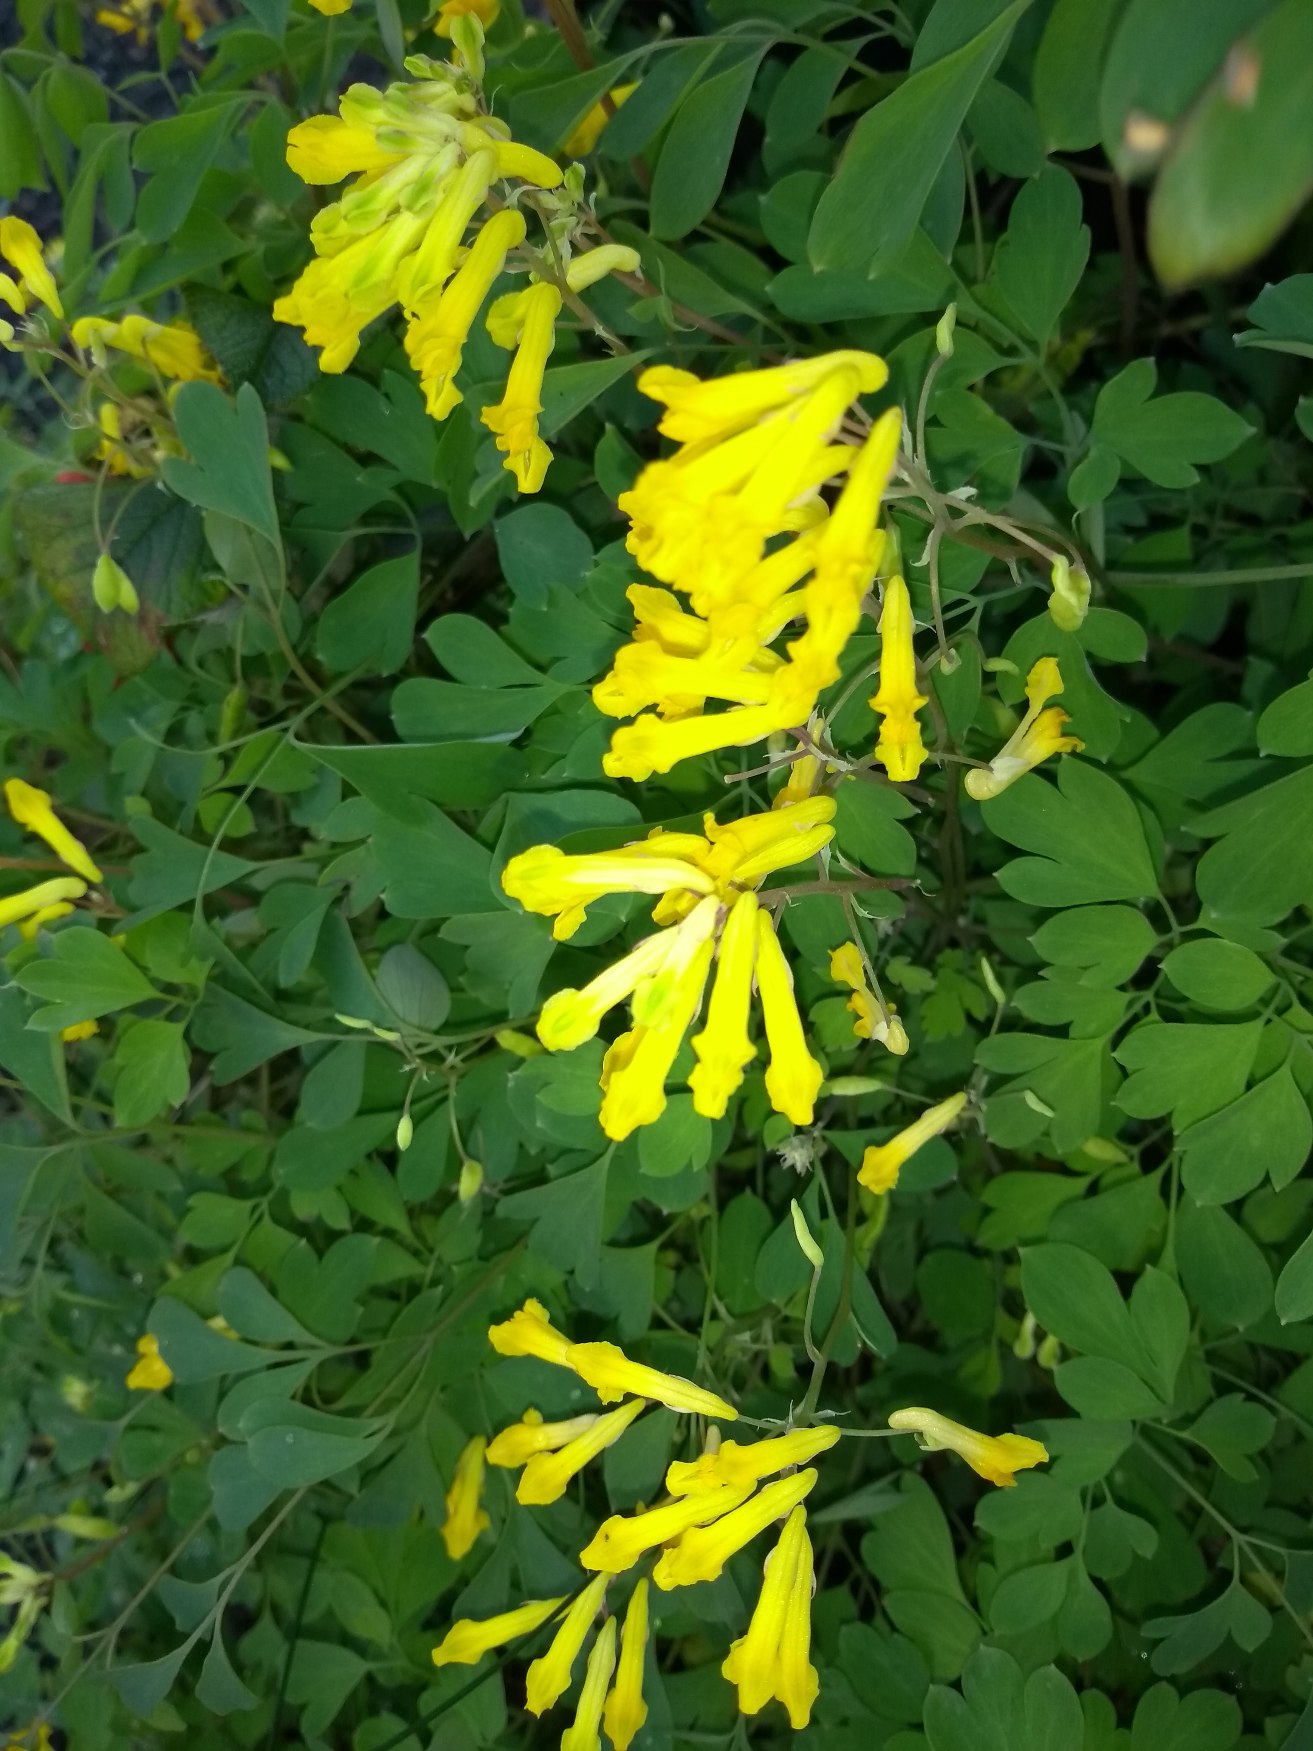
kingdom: Plantae
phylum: Tracheophyta
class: Magnoliopsida
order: Ranunculales
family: Papaveraceae
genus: Pseudofumaria
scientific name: Pseudofumaria lutea
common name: Gul lærkespore
